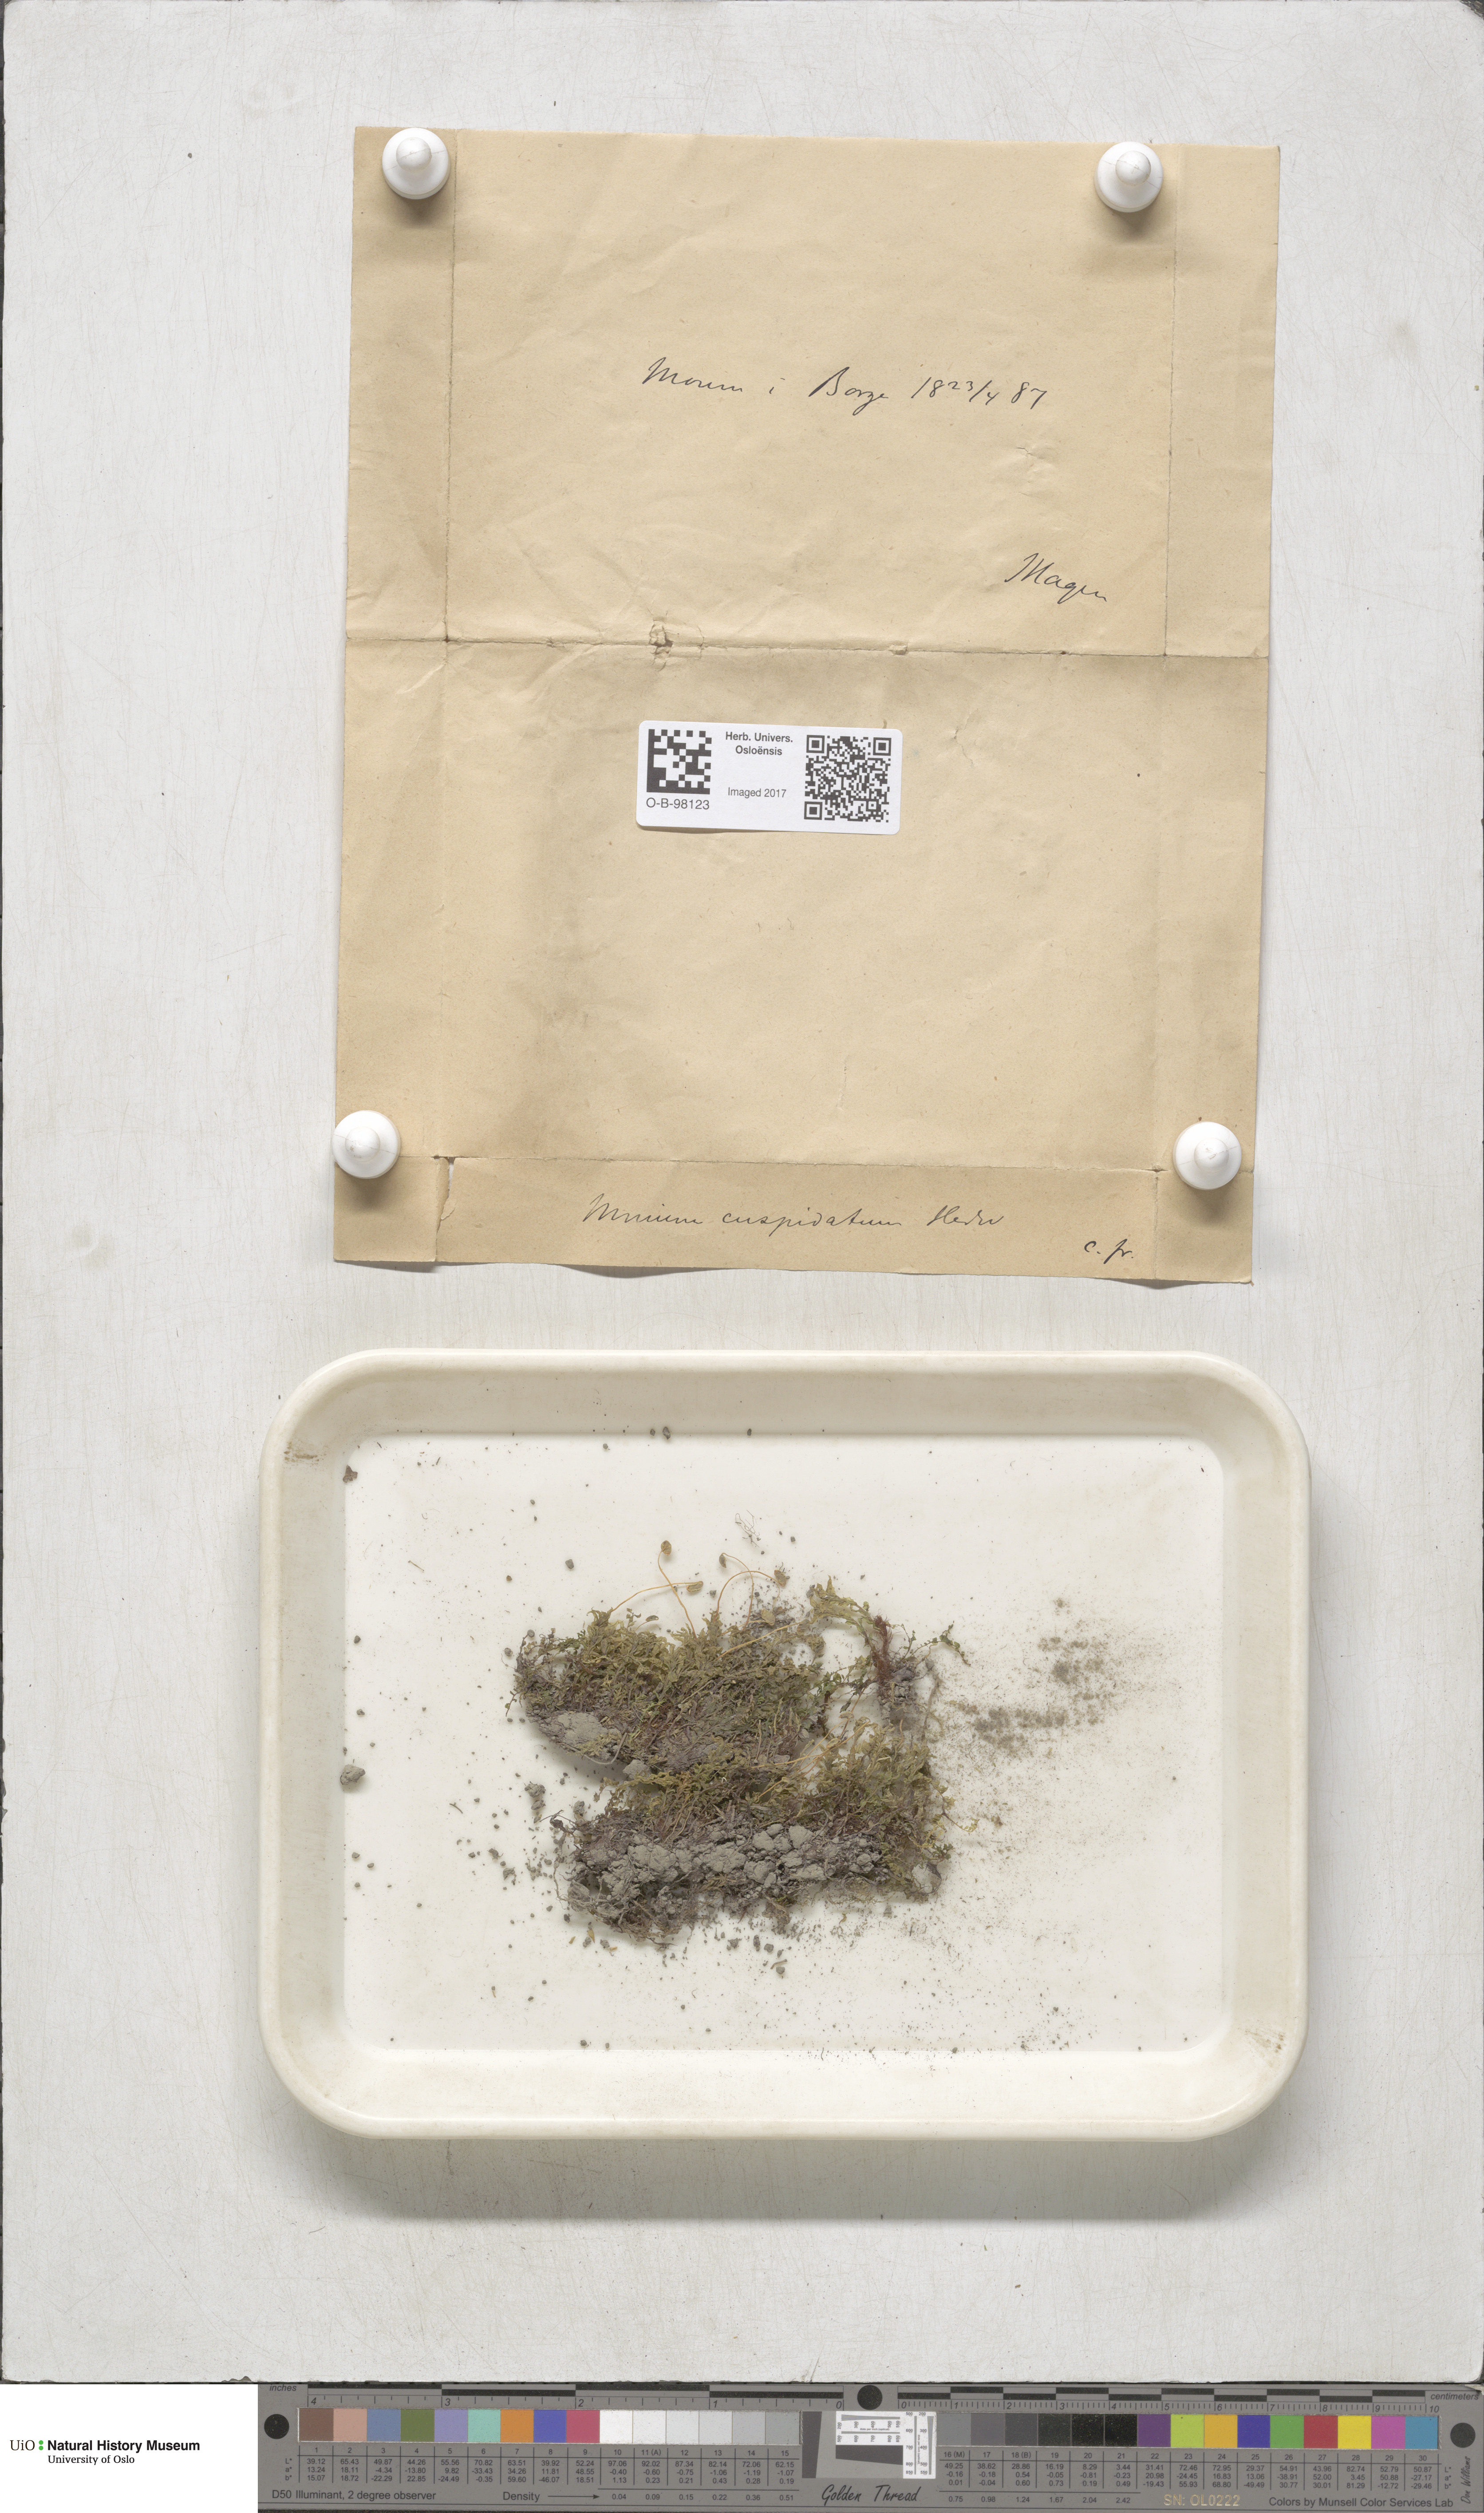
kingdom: Plantae
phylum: Bryophyta
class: Bryopsida
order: Bryales
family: Mniaceae
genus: Plagiomnium
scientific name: Plagiomnium cuspidatum
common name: Woodsy leafy moss
